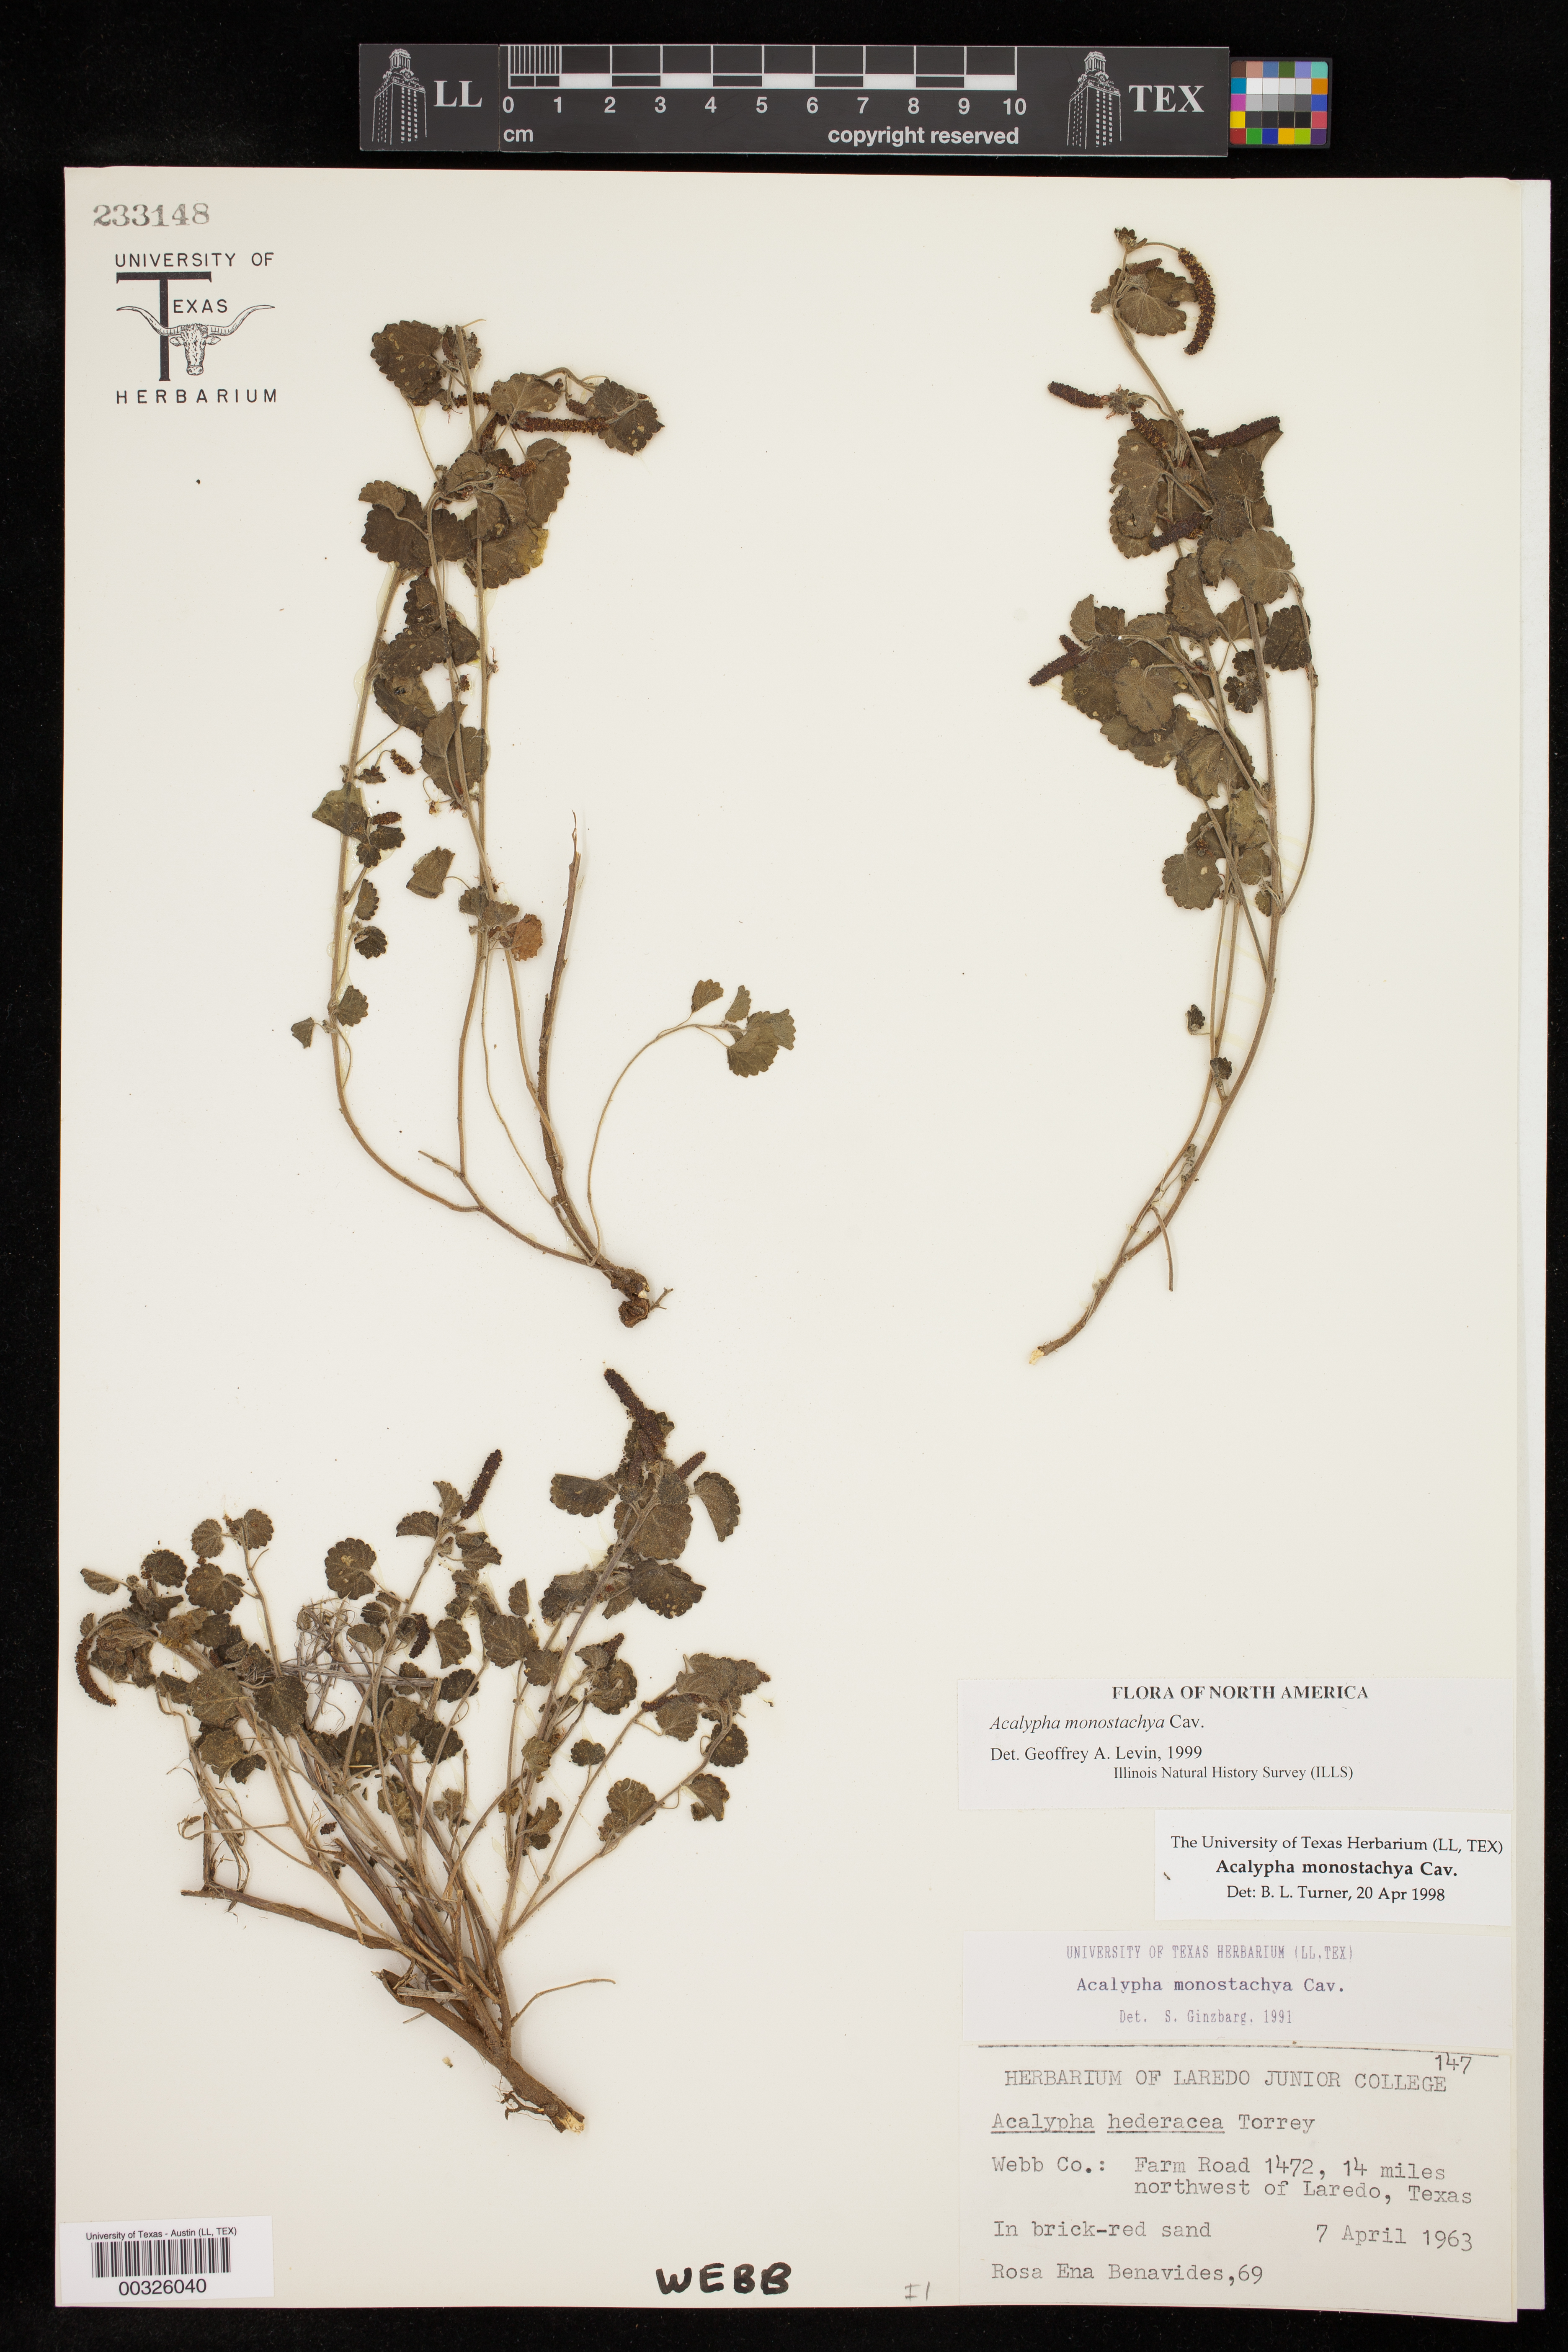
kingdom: Plantae
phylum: Tracheophyta
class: Magnoliopsida
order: Malpighiales
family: Euphorbiaceae
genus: Acalypha
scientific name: Acalypha monostachya
